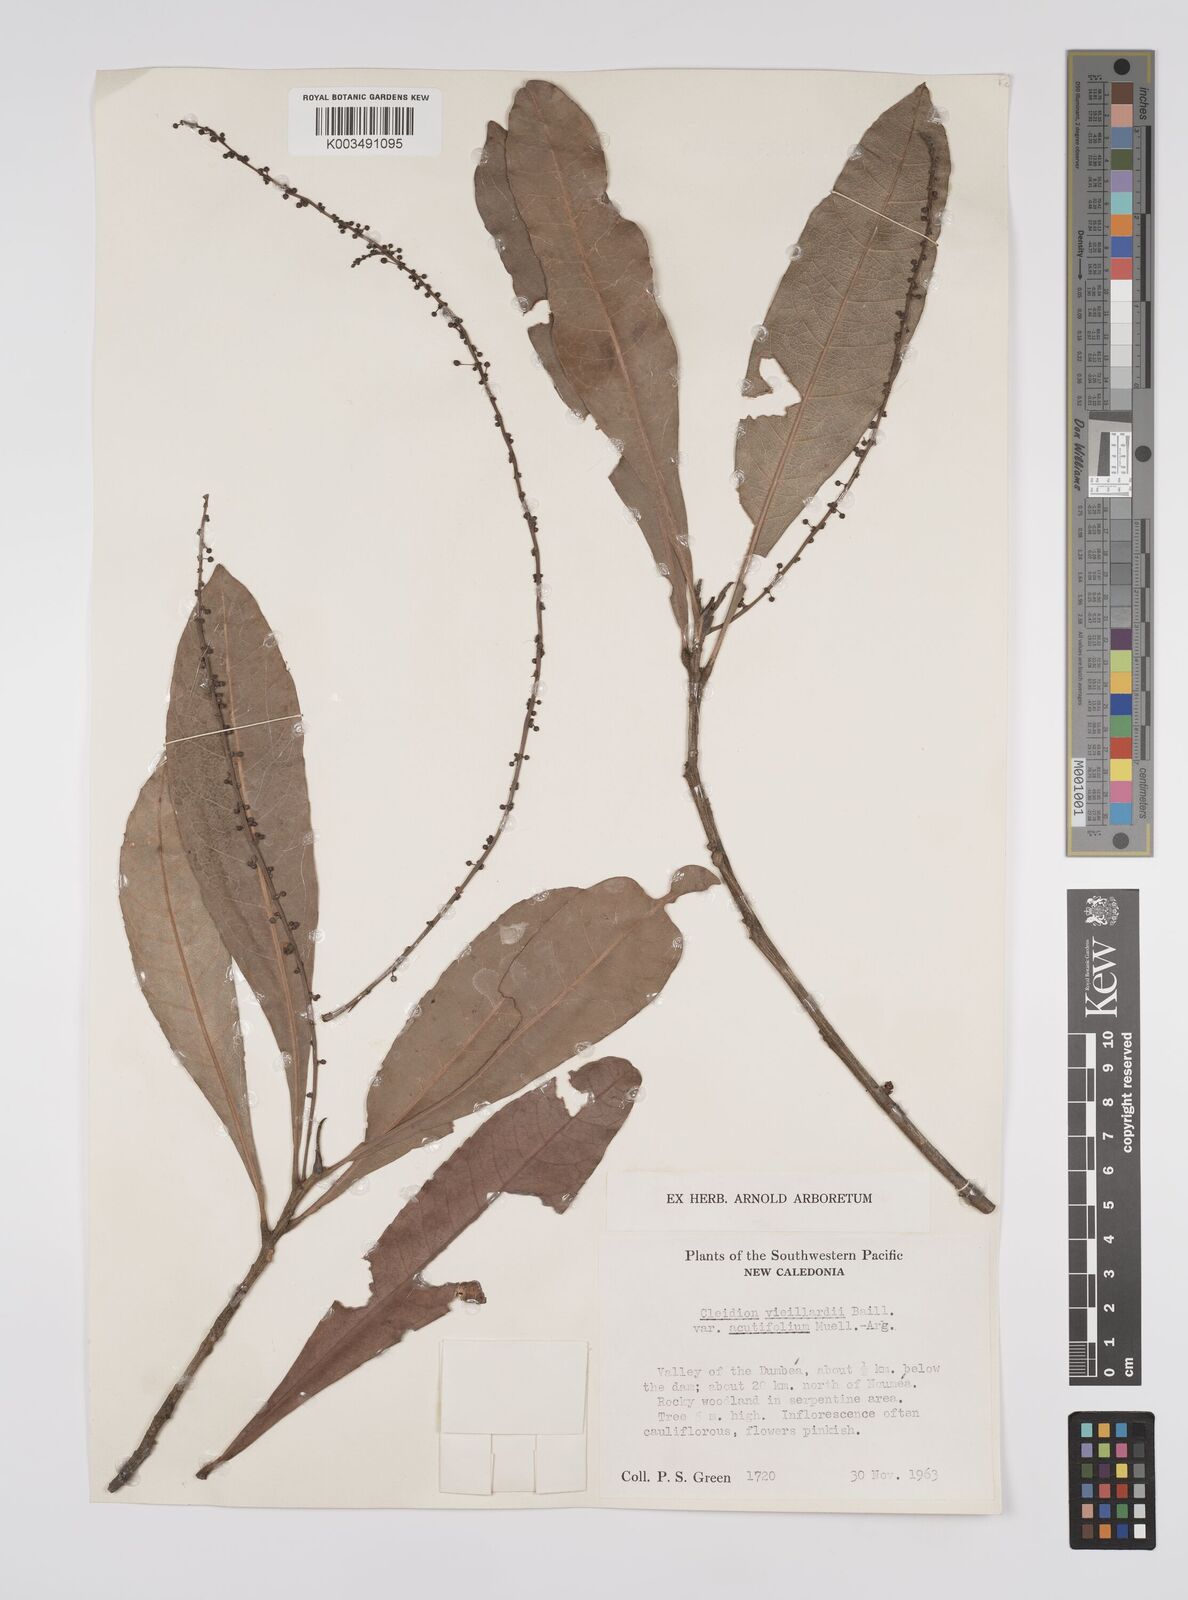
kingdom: Plantae
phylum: Tracheophyta
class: Magnoliopsida
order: Malpighiales
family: Euphorbiaceae
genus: Cleidion
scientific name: Cleidion vieillardii
